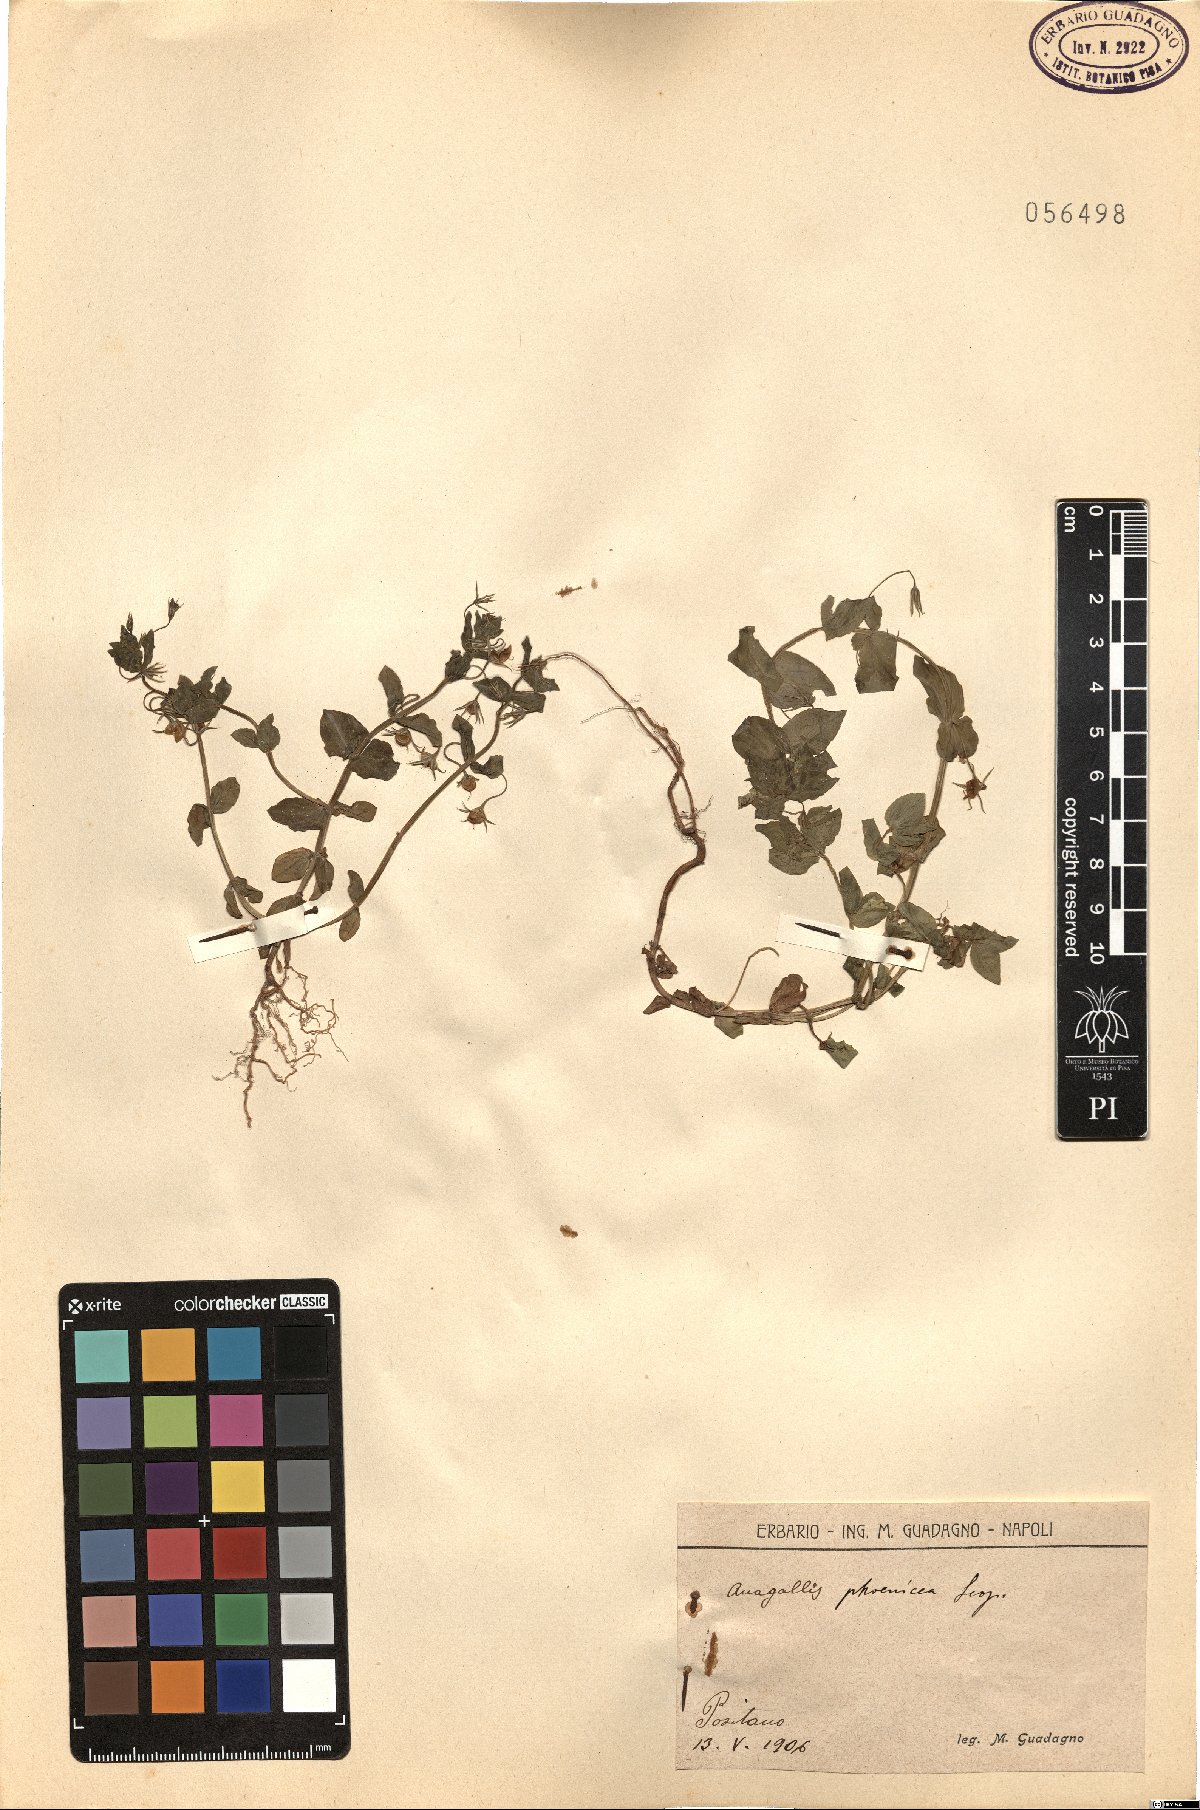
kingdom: Plantae
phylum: Tracheophyta
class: Magnoliopsida
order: Ericales
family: Primulaceae
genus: Lysimachia
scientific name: Lysimachia arvensis
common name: Scarlet pimpernel
